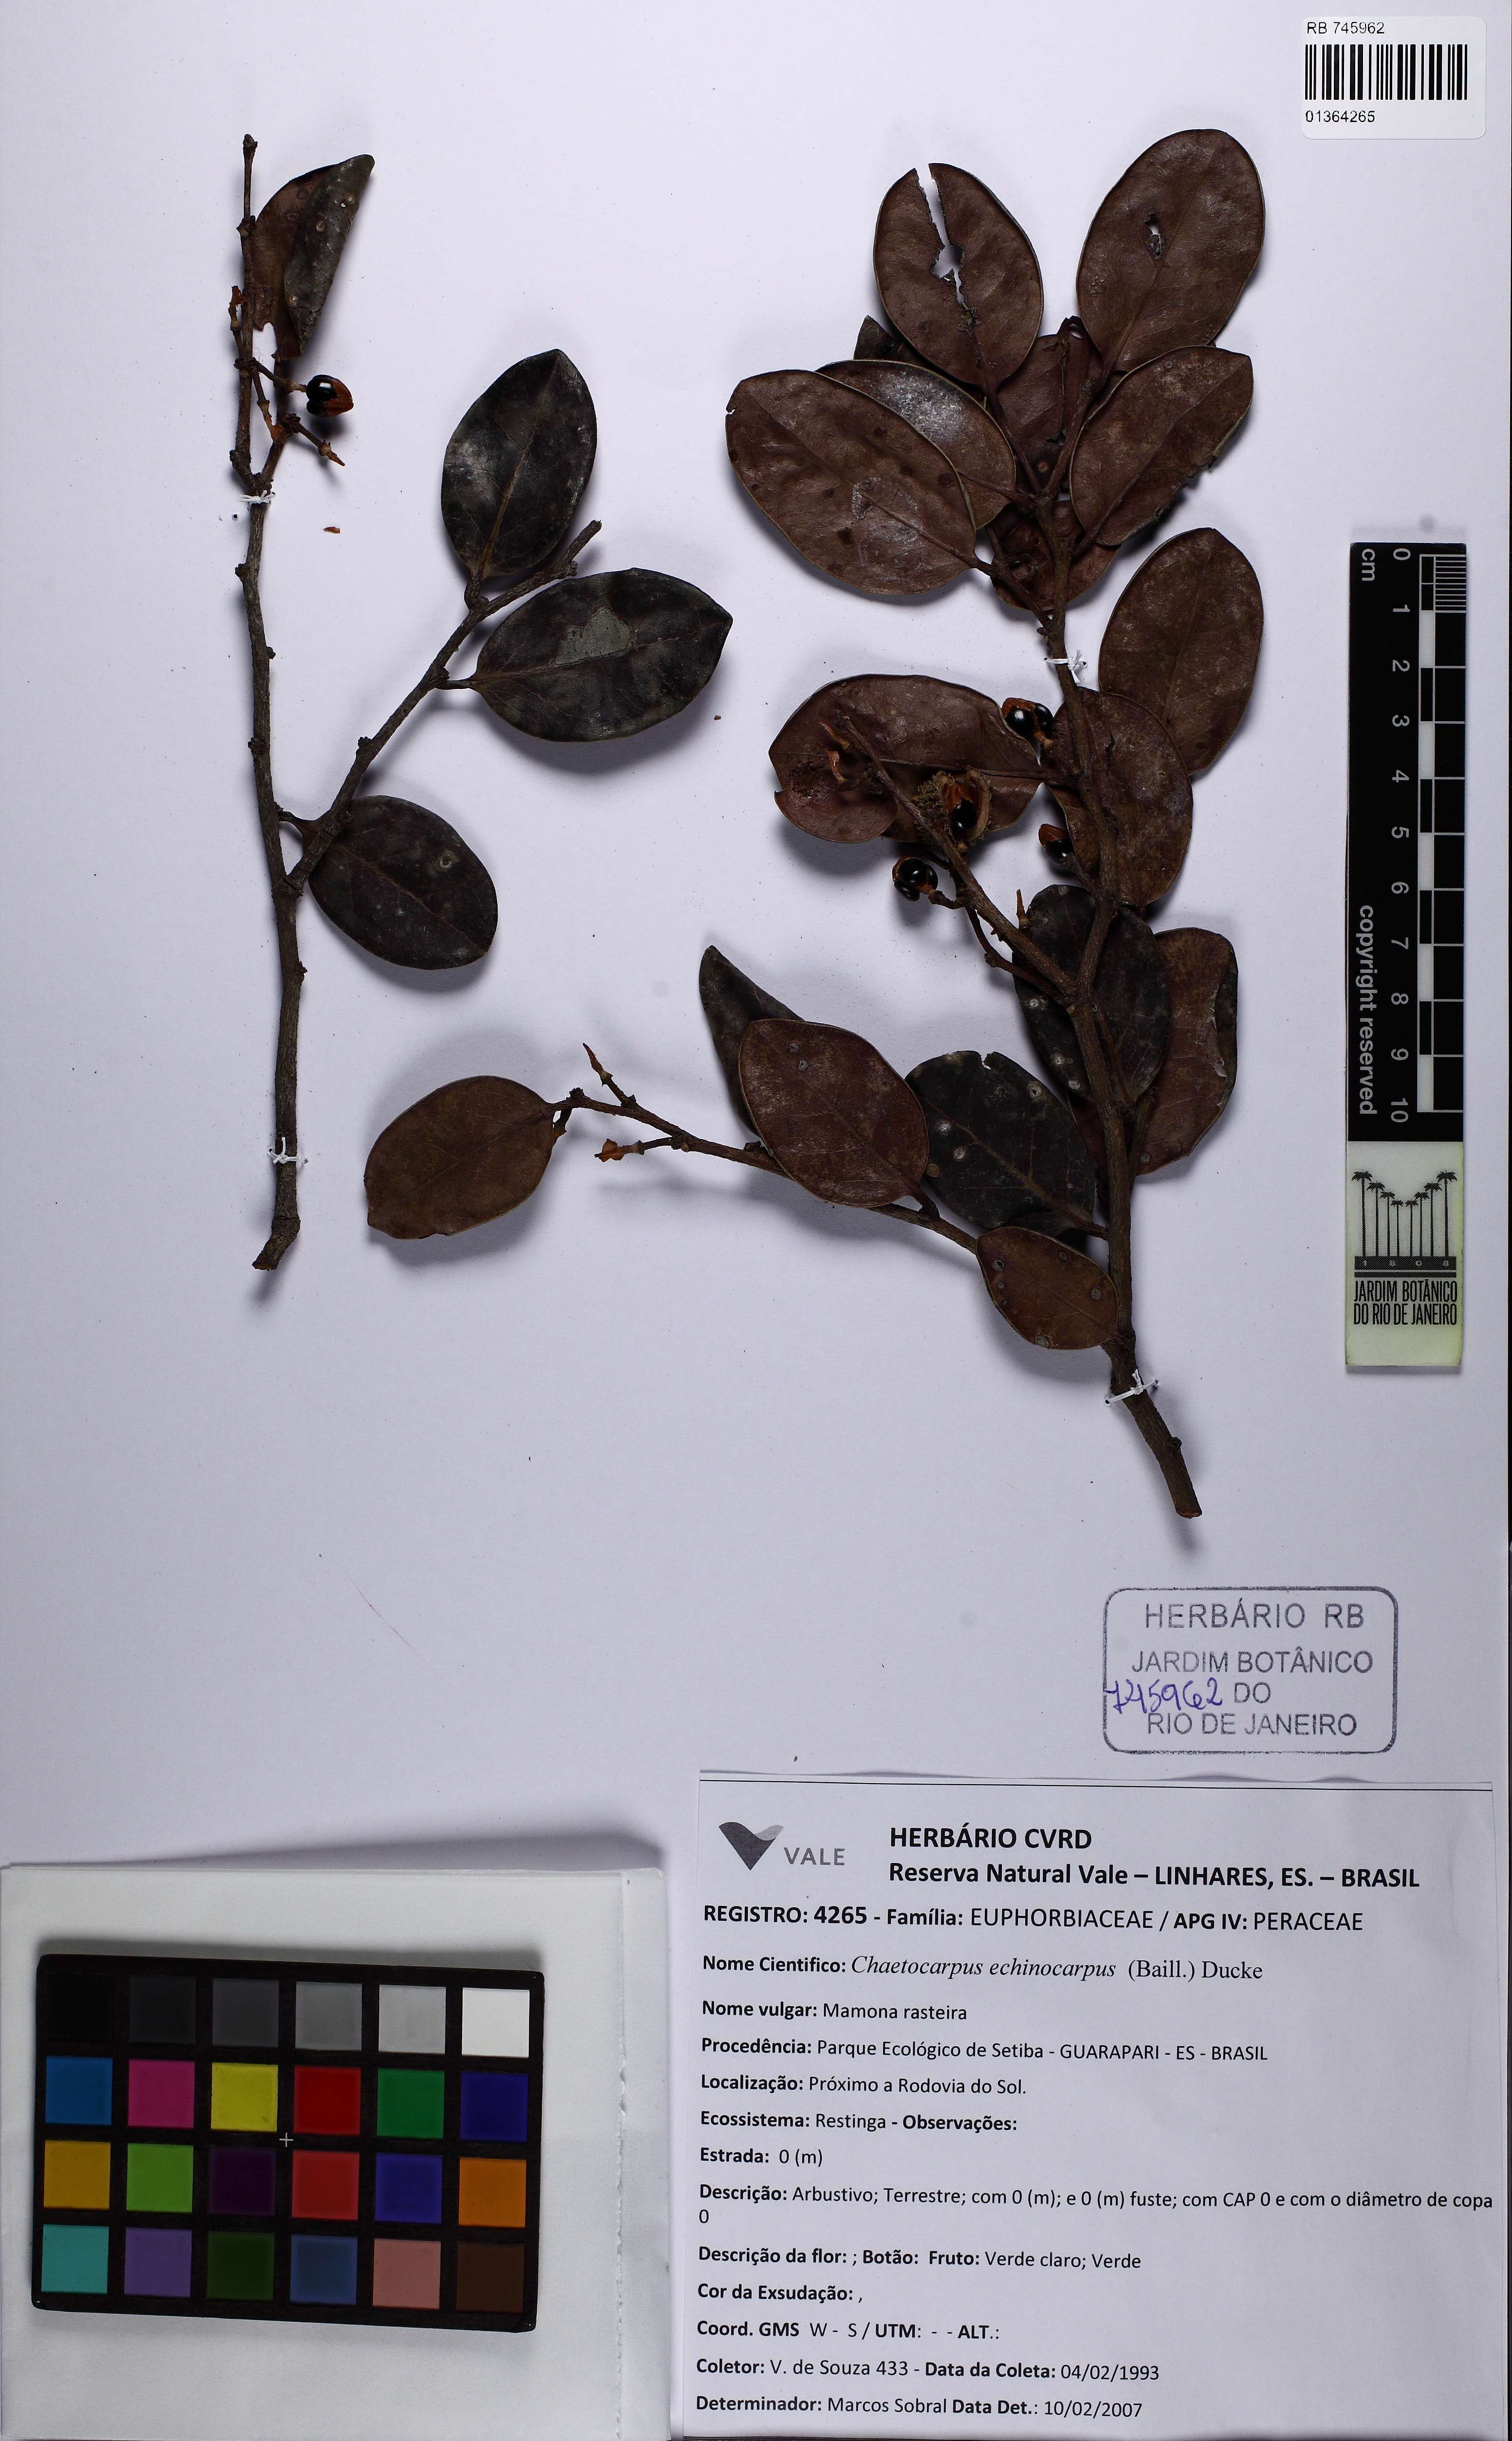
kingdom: Plantae
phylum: Tracheophyta
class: Magnoliopsida
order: Malpighiales
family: Peraceae
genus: Chaetocarpus
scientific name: Chaetocarpus myrsinites
